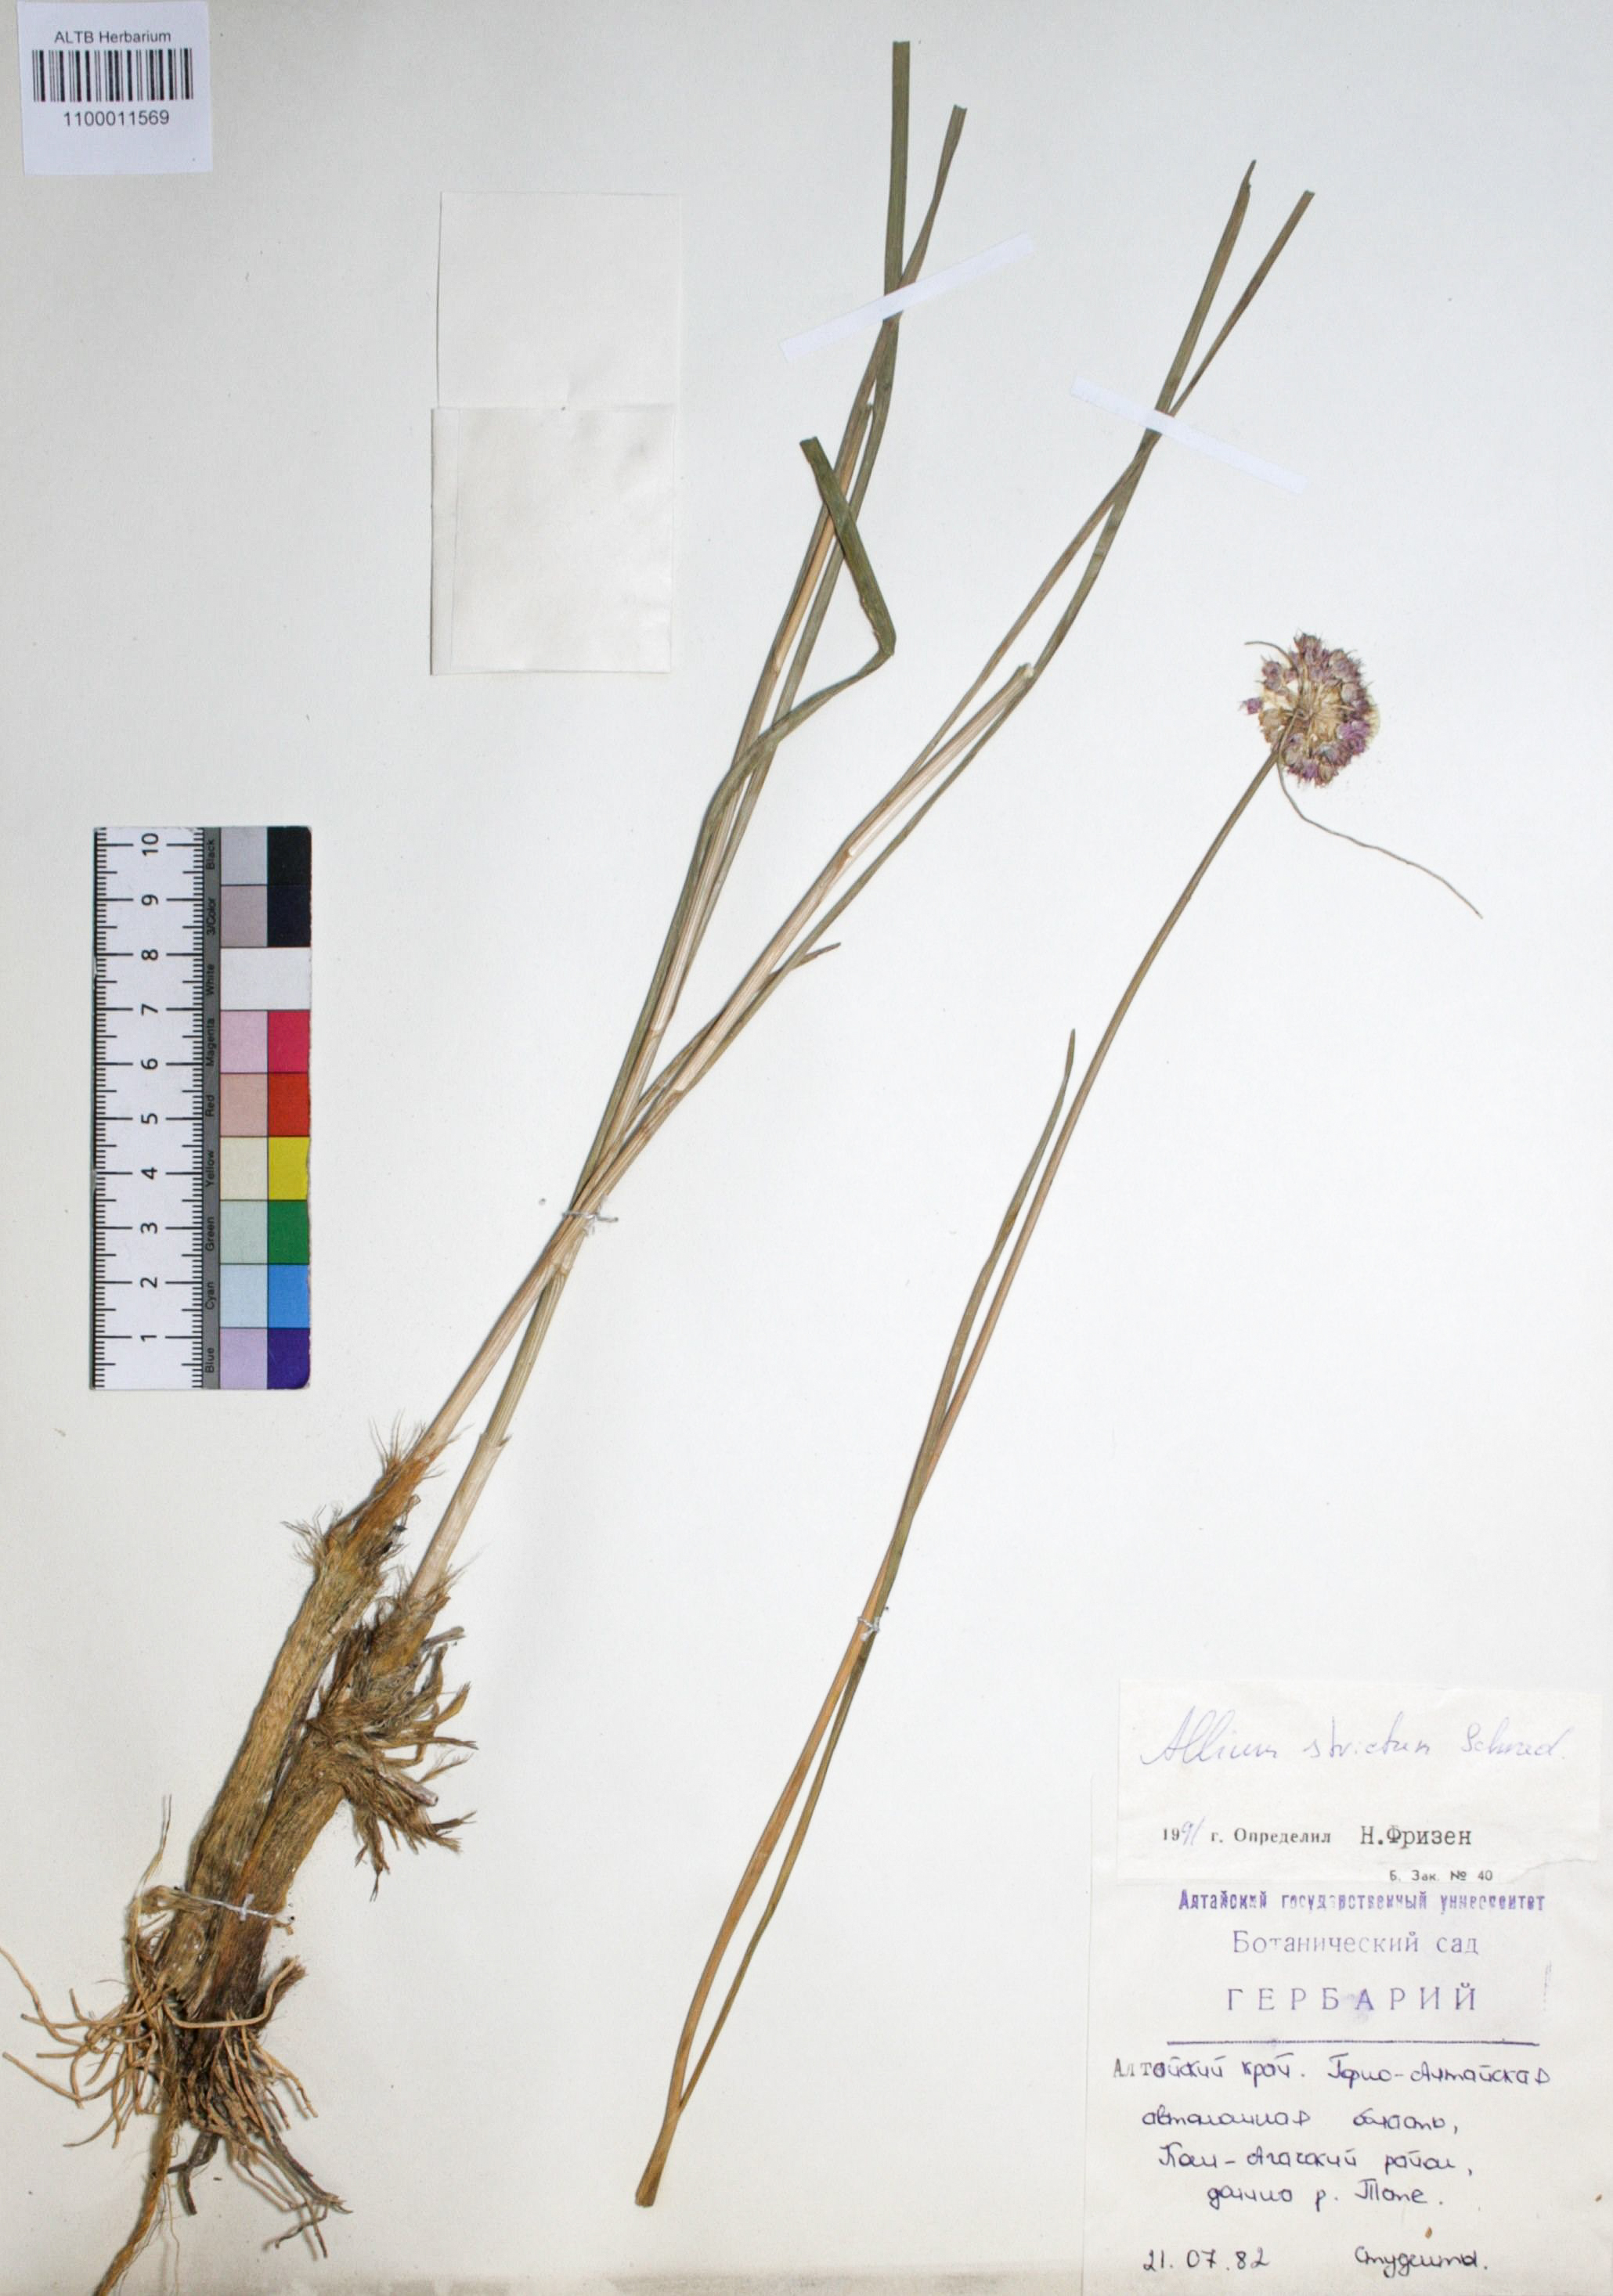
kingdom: Plantae
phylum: Tracheophyta
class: Liliopsida
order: Asparagales
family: Amaryllidaceae
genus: Allium
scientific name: Allium strictum
